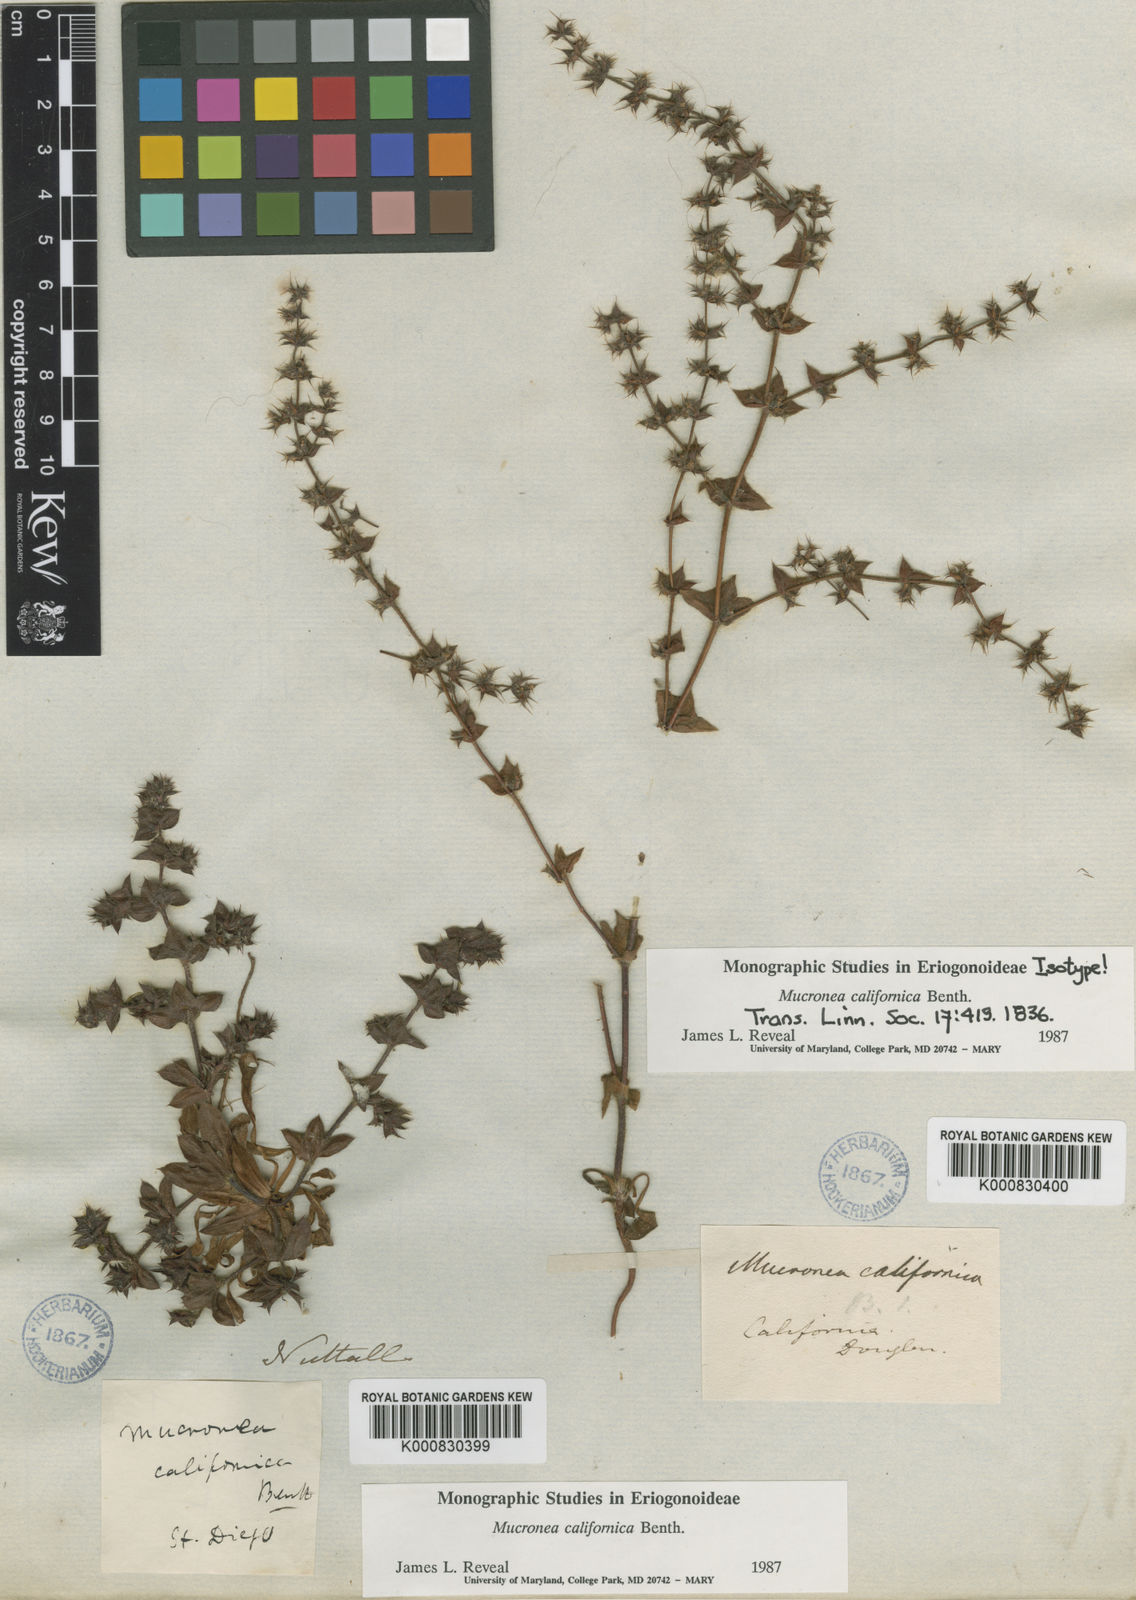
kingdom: Plantae
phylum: Tracheophyta
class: Magnoliopsida
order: Caryophyllales
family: Polygonaceae
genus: Mucronea
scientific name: Mucronea californica
